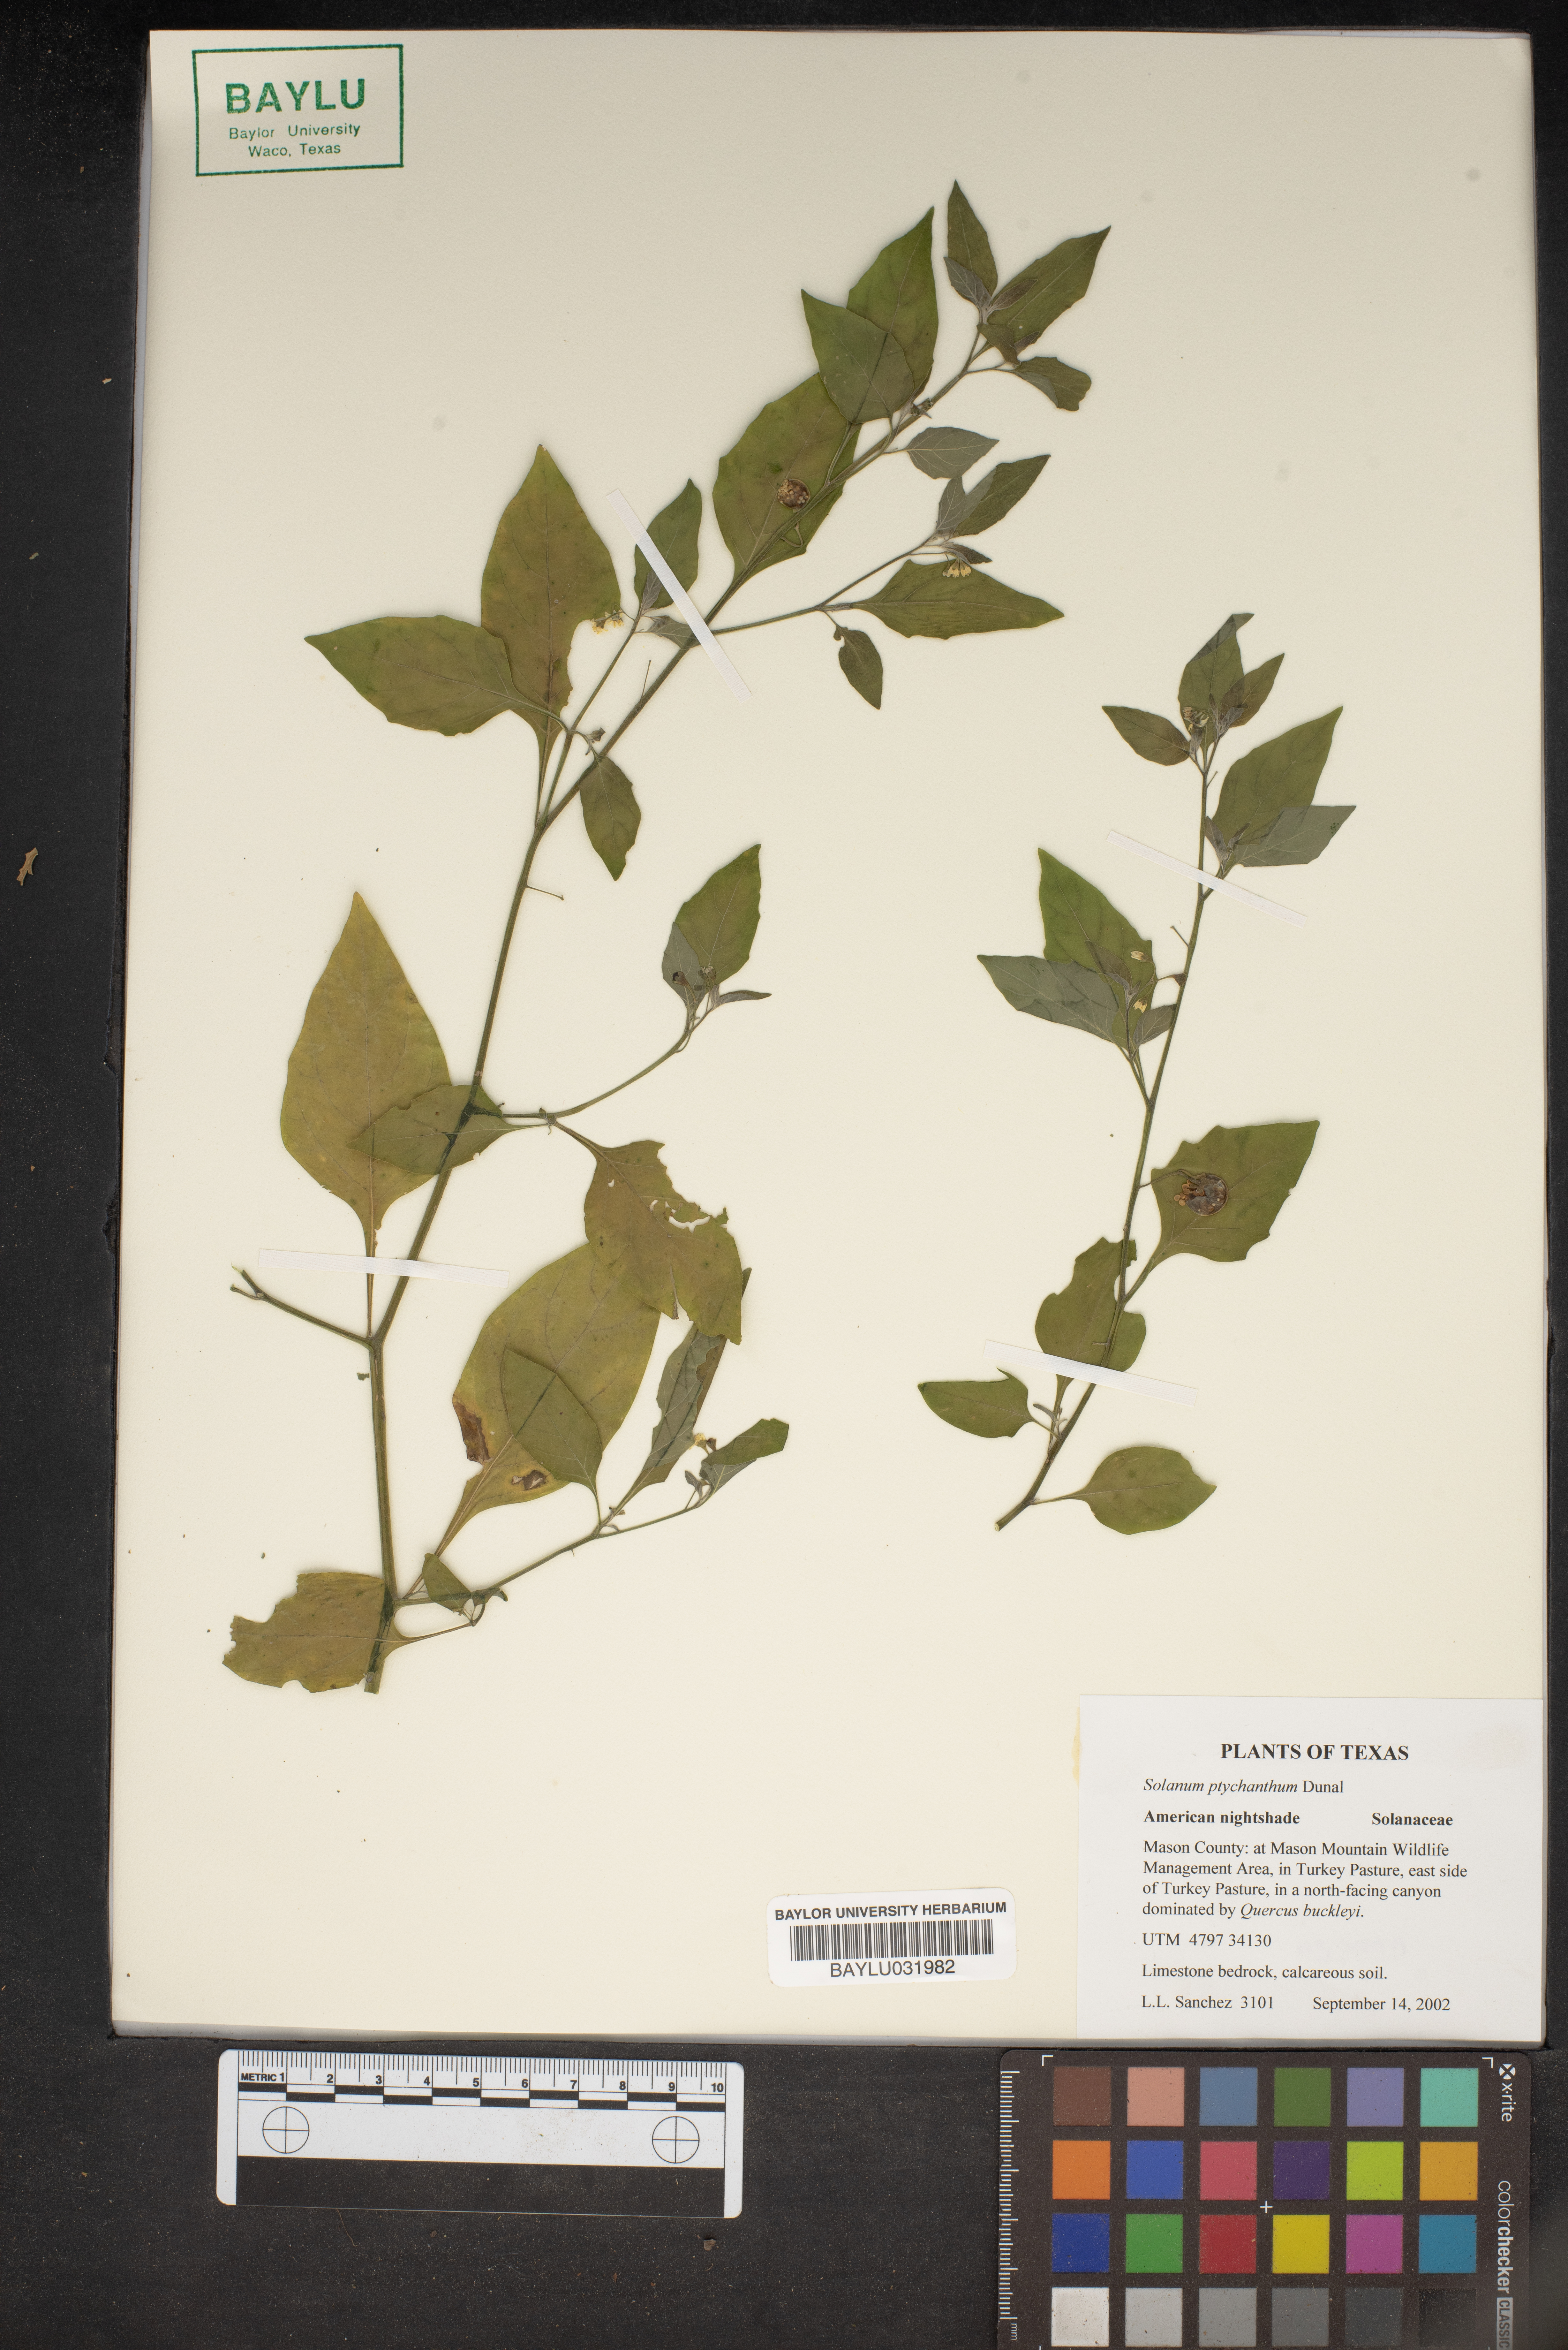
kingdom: Plantae
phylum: Tracheophyta
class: Magnoliopsida
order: Solanales
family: Solanaceae
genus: Solanum
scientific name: Solanum americanum
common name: American black nightshade
